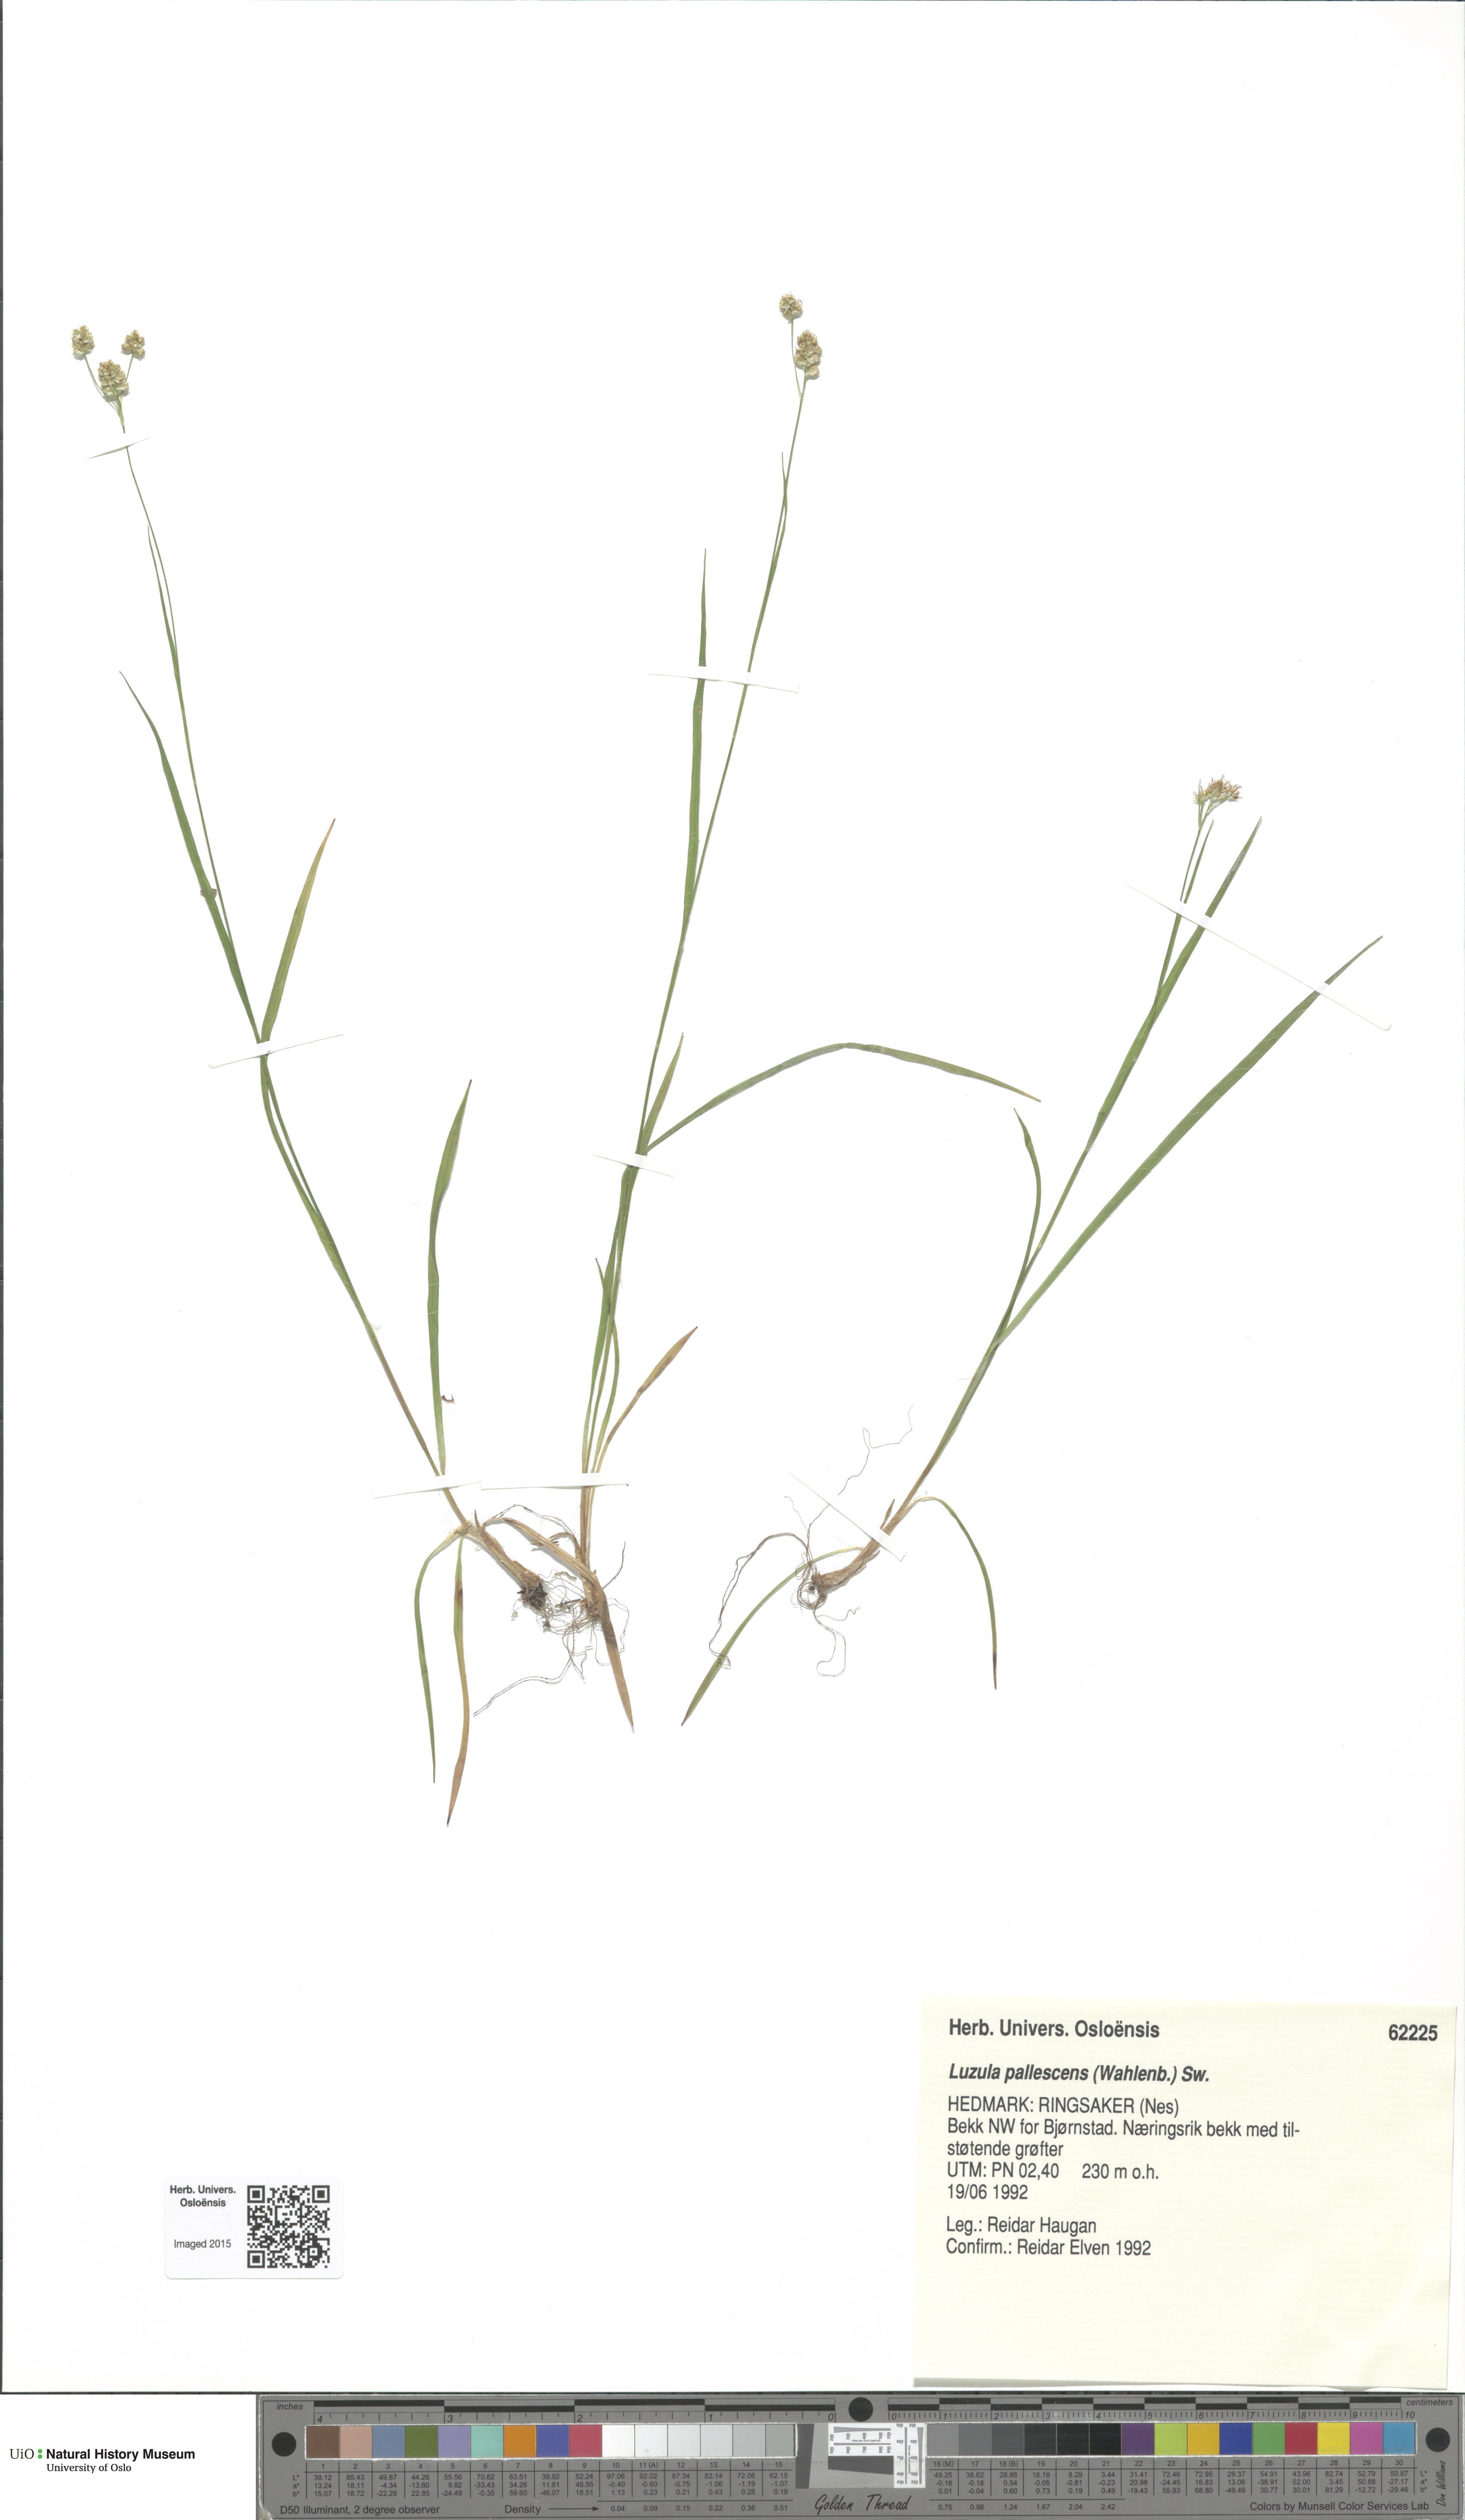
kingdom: Plantae
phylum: Tracheophyta
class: Liliopsida
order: Poales
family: Juncaceae
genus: Luzula
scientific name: Luzula pallescens
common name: Fen wood-rush
